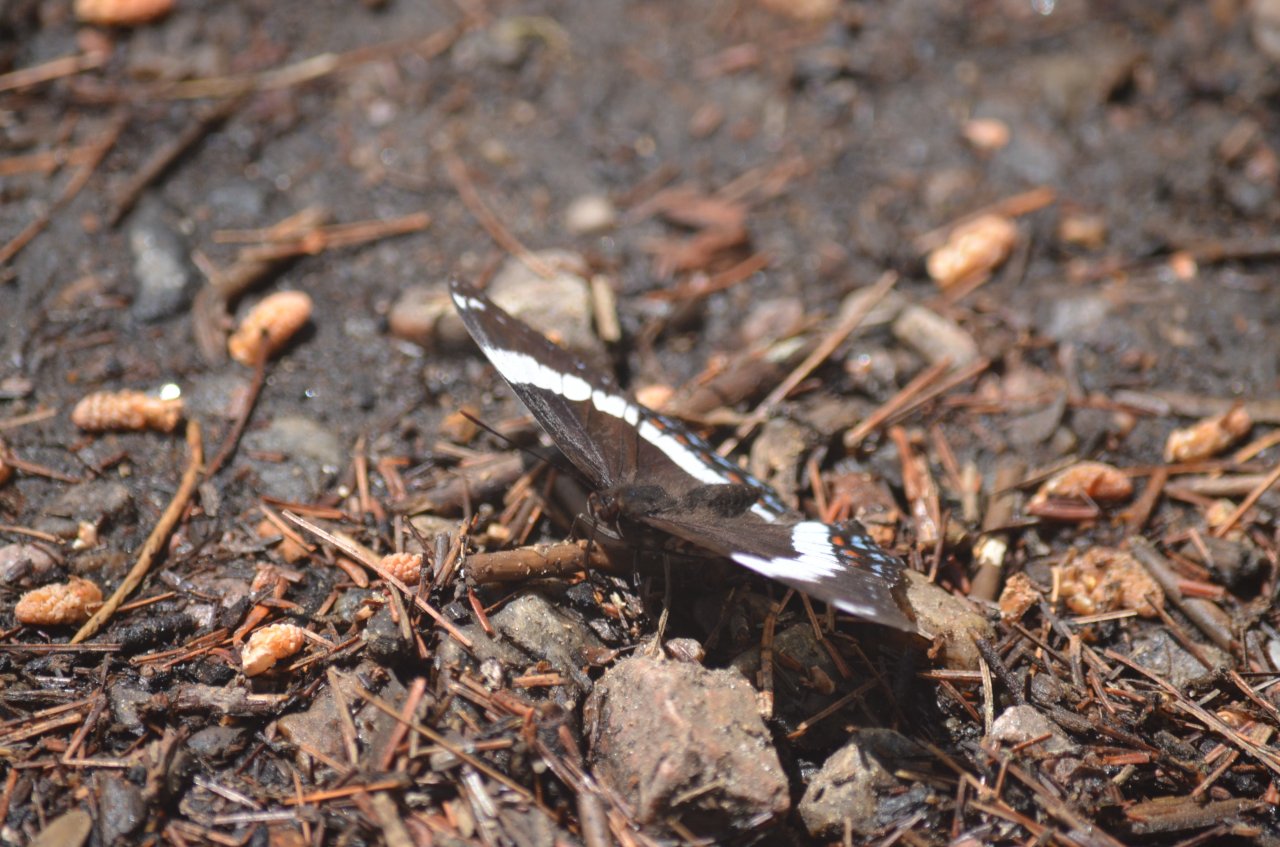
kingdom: Animalia
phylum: Arthropoda
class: Insecta
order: Lepidoptera
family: Nymphalidae
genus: Limenitis
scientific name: Limenitis arthemis
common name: Red-spotted Admiral
